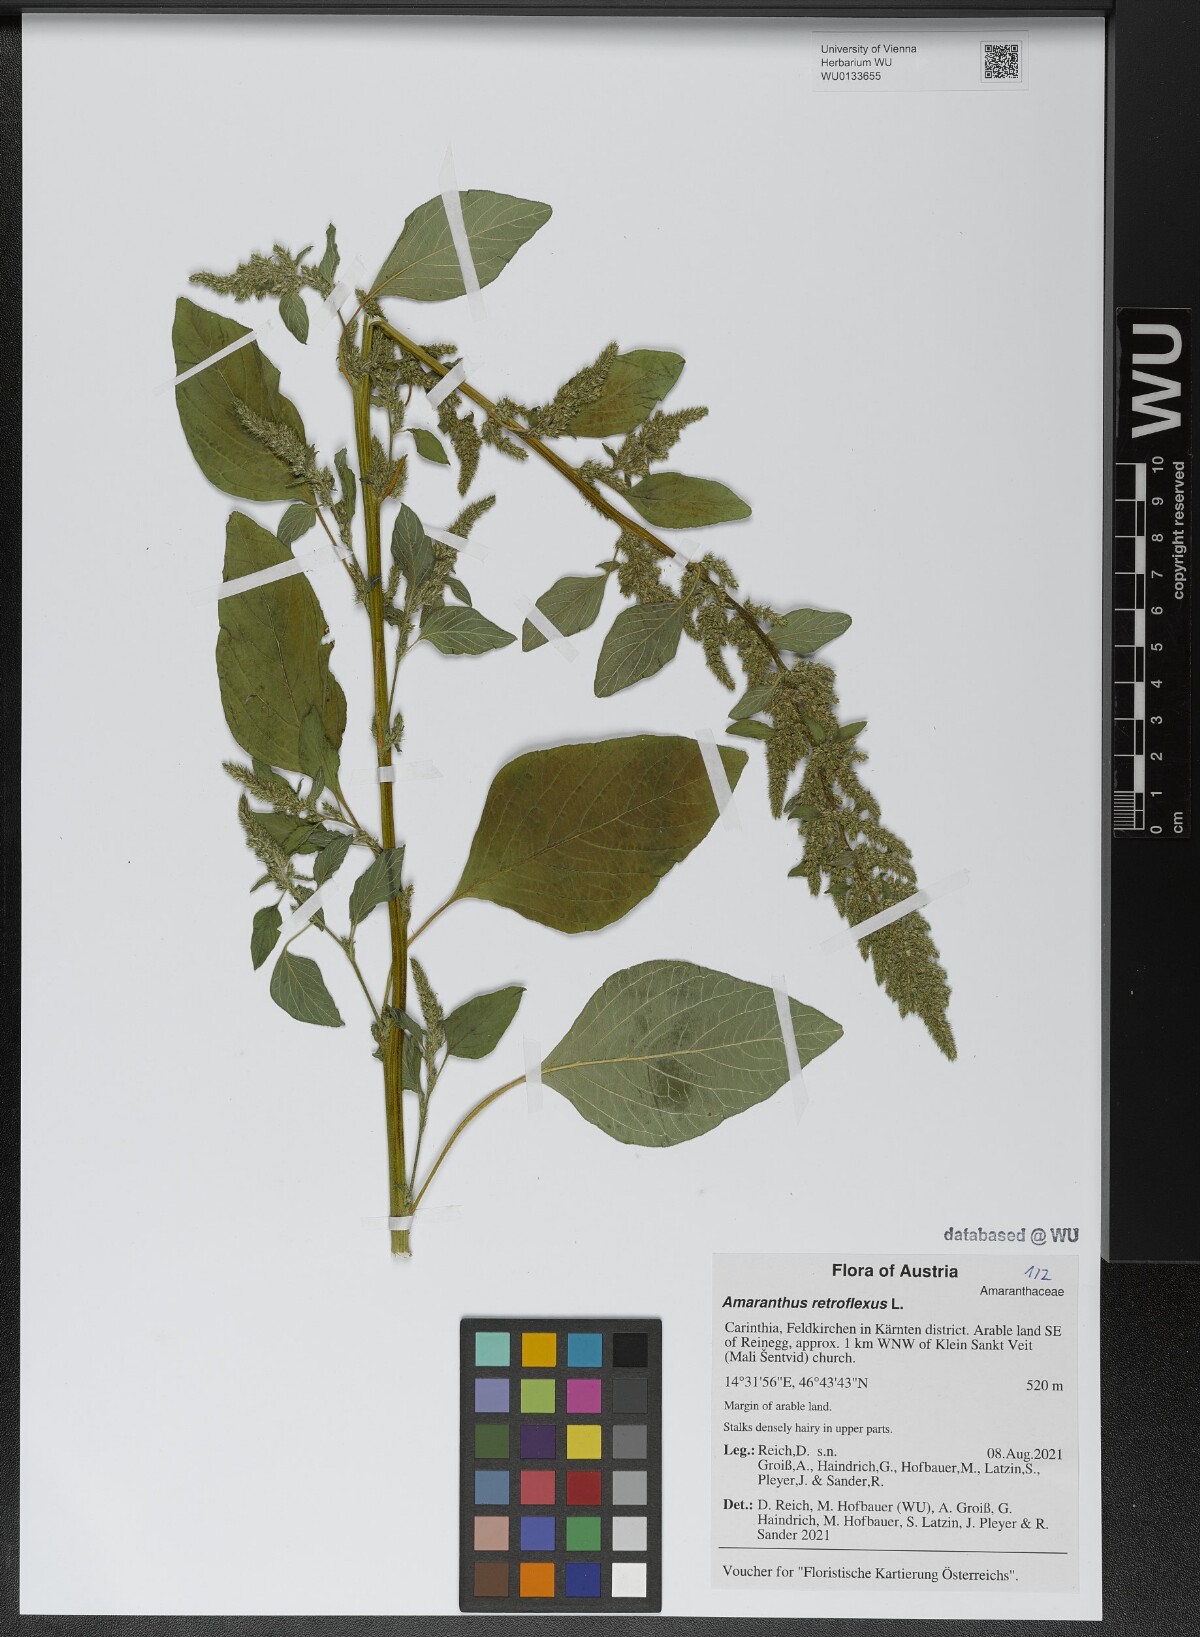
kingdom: Plantae
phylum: Tracheophyta
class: Magnoliopsida
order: Caryophyllales
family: Amaranthaceae
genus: Amaranthus
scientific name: Amaranthus retroflexus
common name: Redroot amaranth
